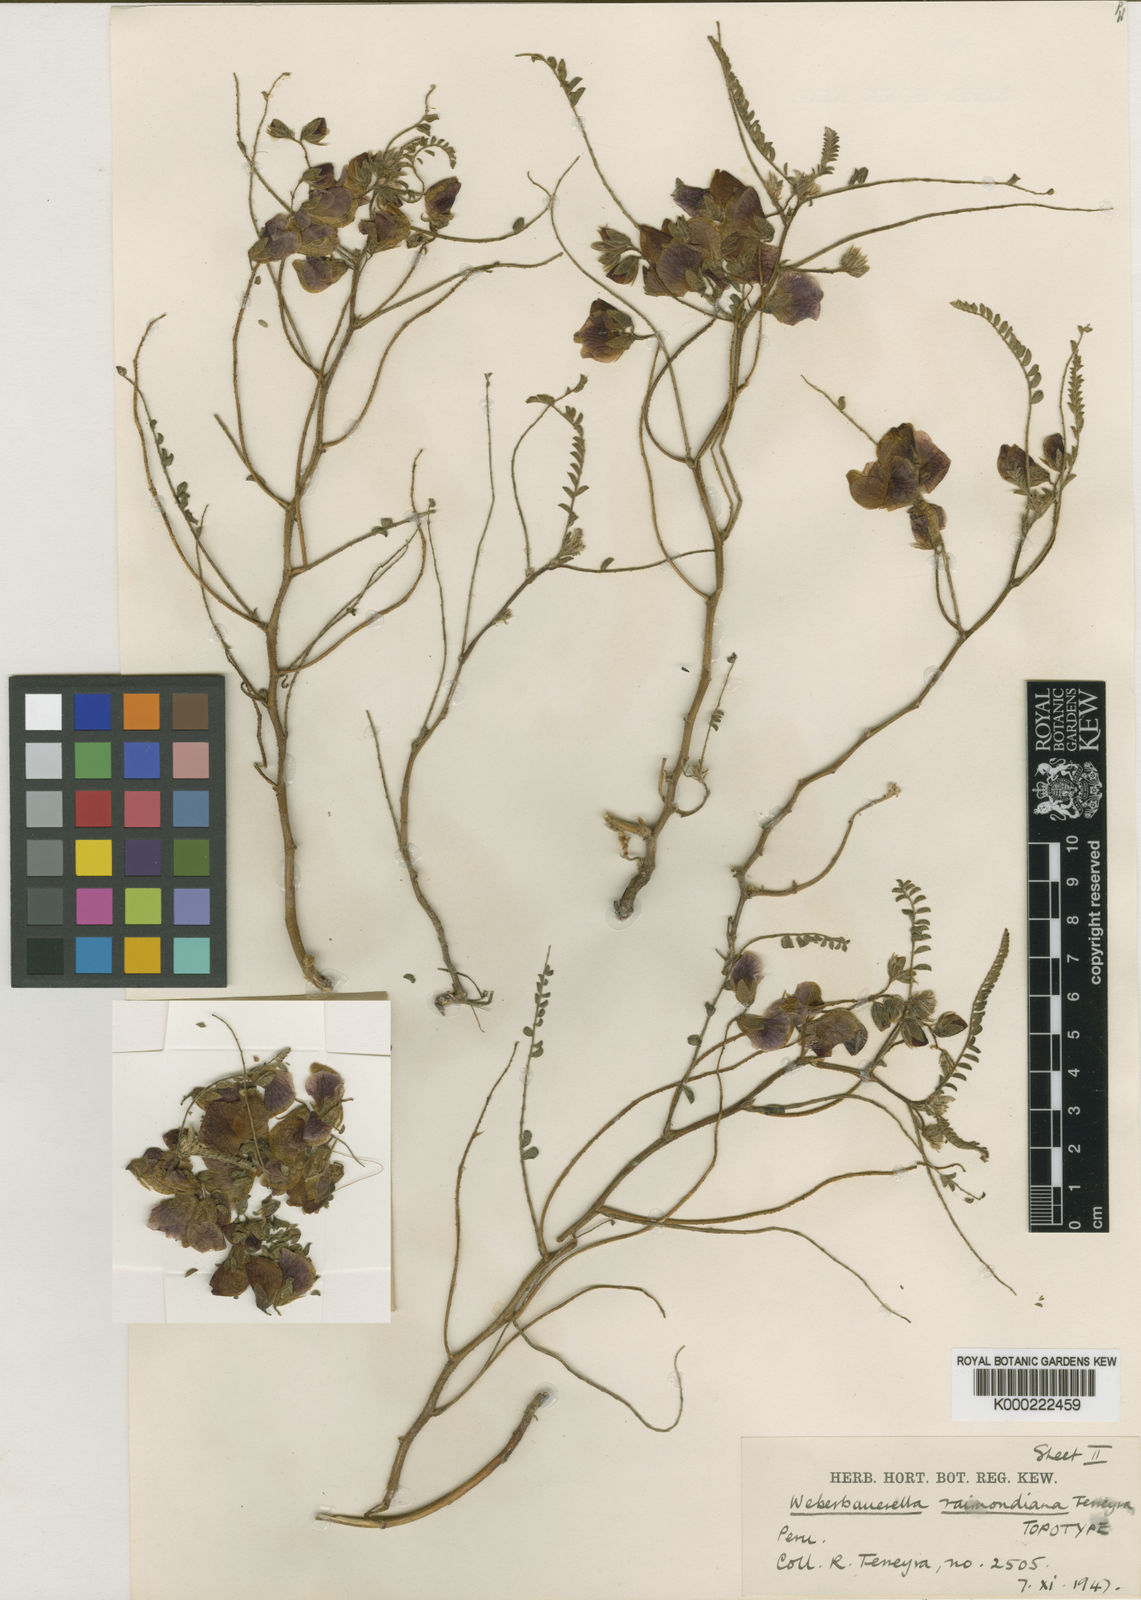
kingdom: Plantae
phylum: Tracheophyta
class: Magnoliopsida
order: Fabales
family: Fabaceae
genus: Weberbauerella
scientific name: Weberbauerella raimondiana
